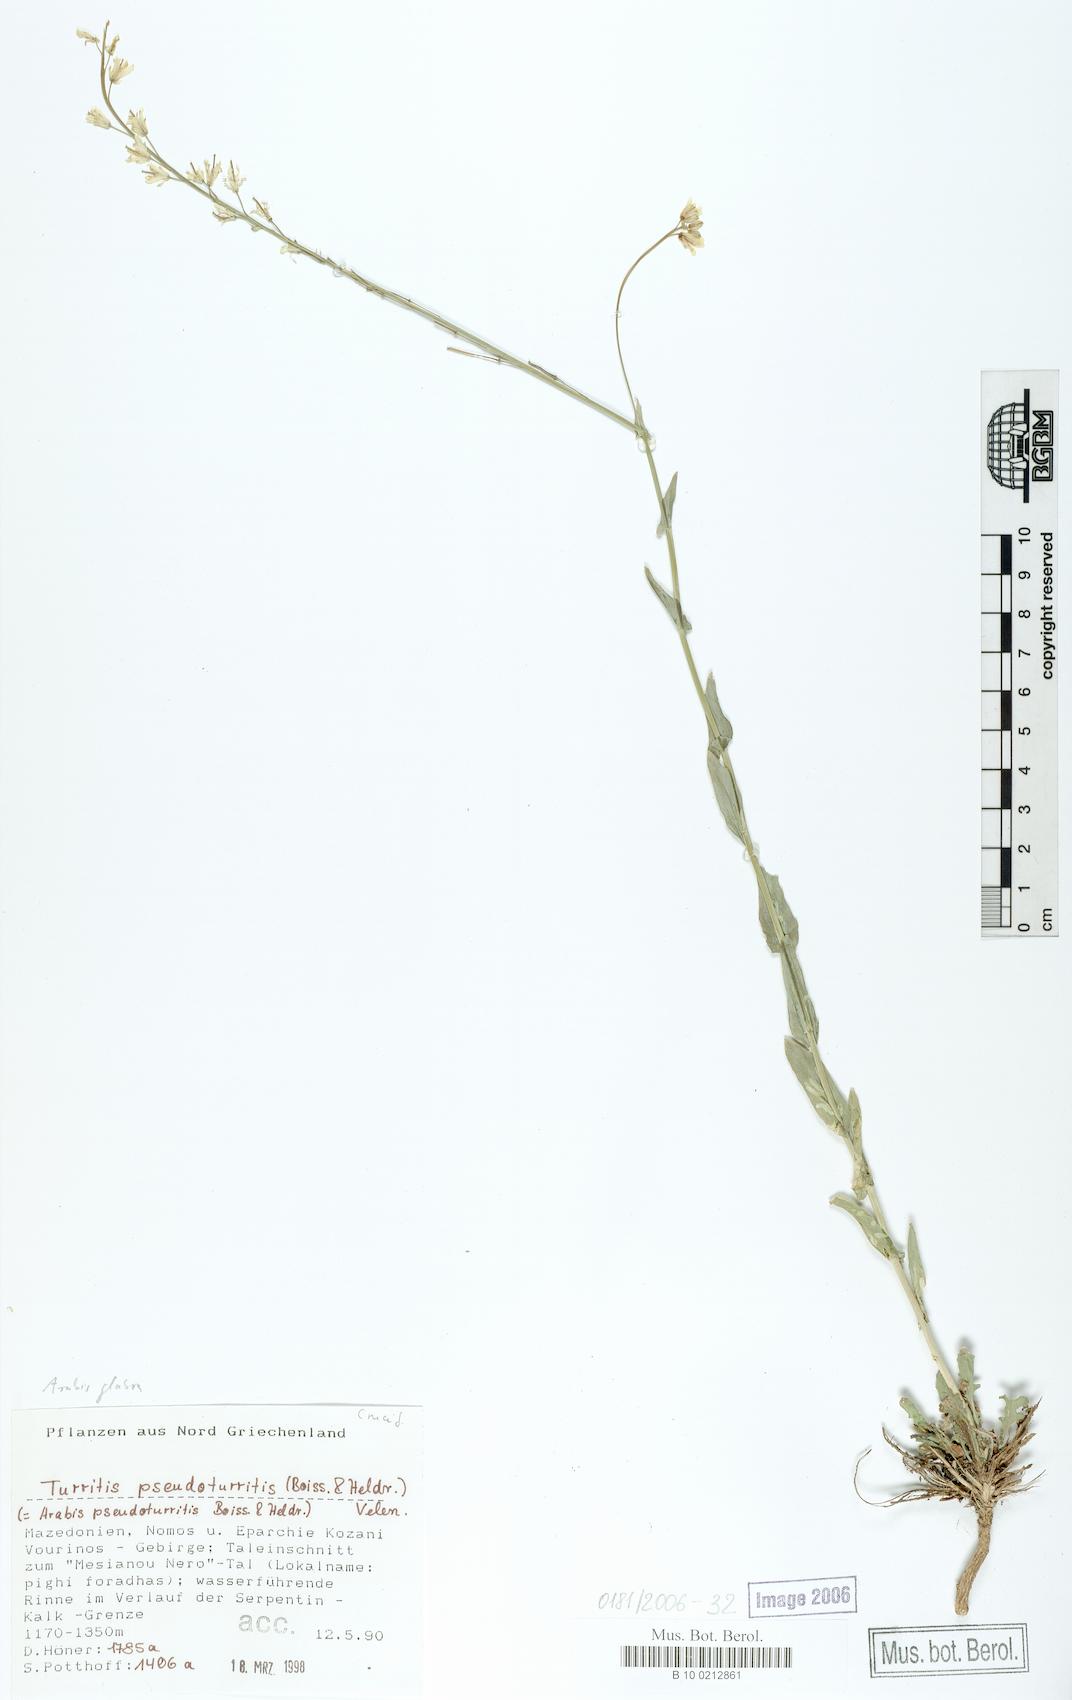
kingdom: Plantae
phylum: Tracheophyta
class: Magnoliopsida
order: Brassicales
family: Brassicaceae
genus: Turritis
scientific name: Turritis glabra
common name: Tower rockcress
